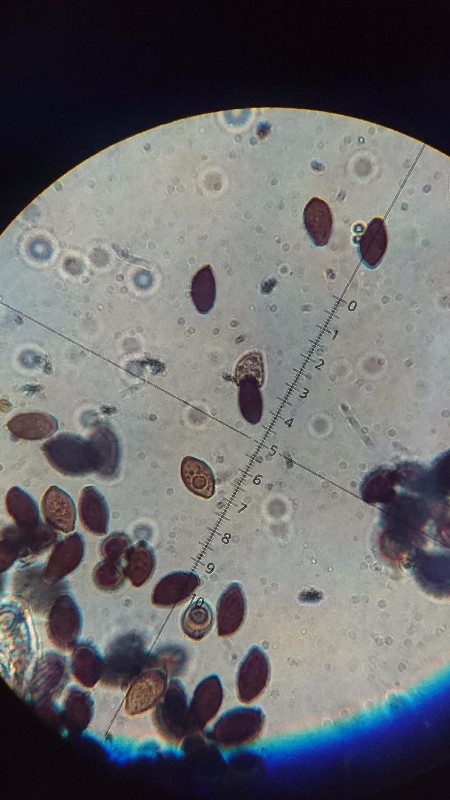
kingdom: Fungi
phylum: Basidiomycota
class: Agaricomycetes
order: Agaricales
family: Bolbitiaceae
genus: Panaeolus
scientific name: Panaeolus olivaceus
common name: lysstokket glanshat
